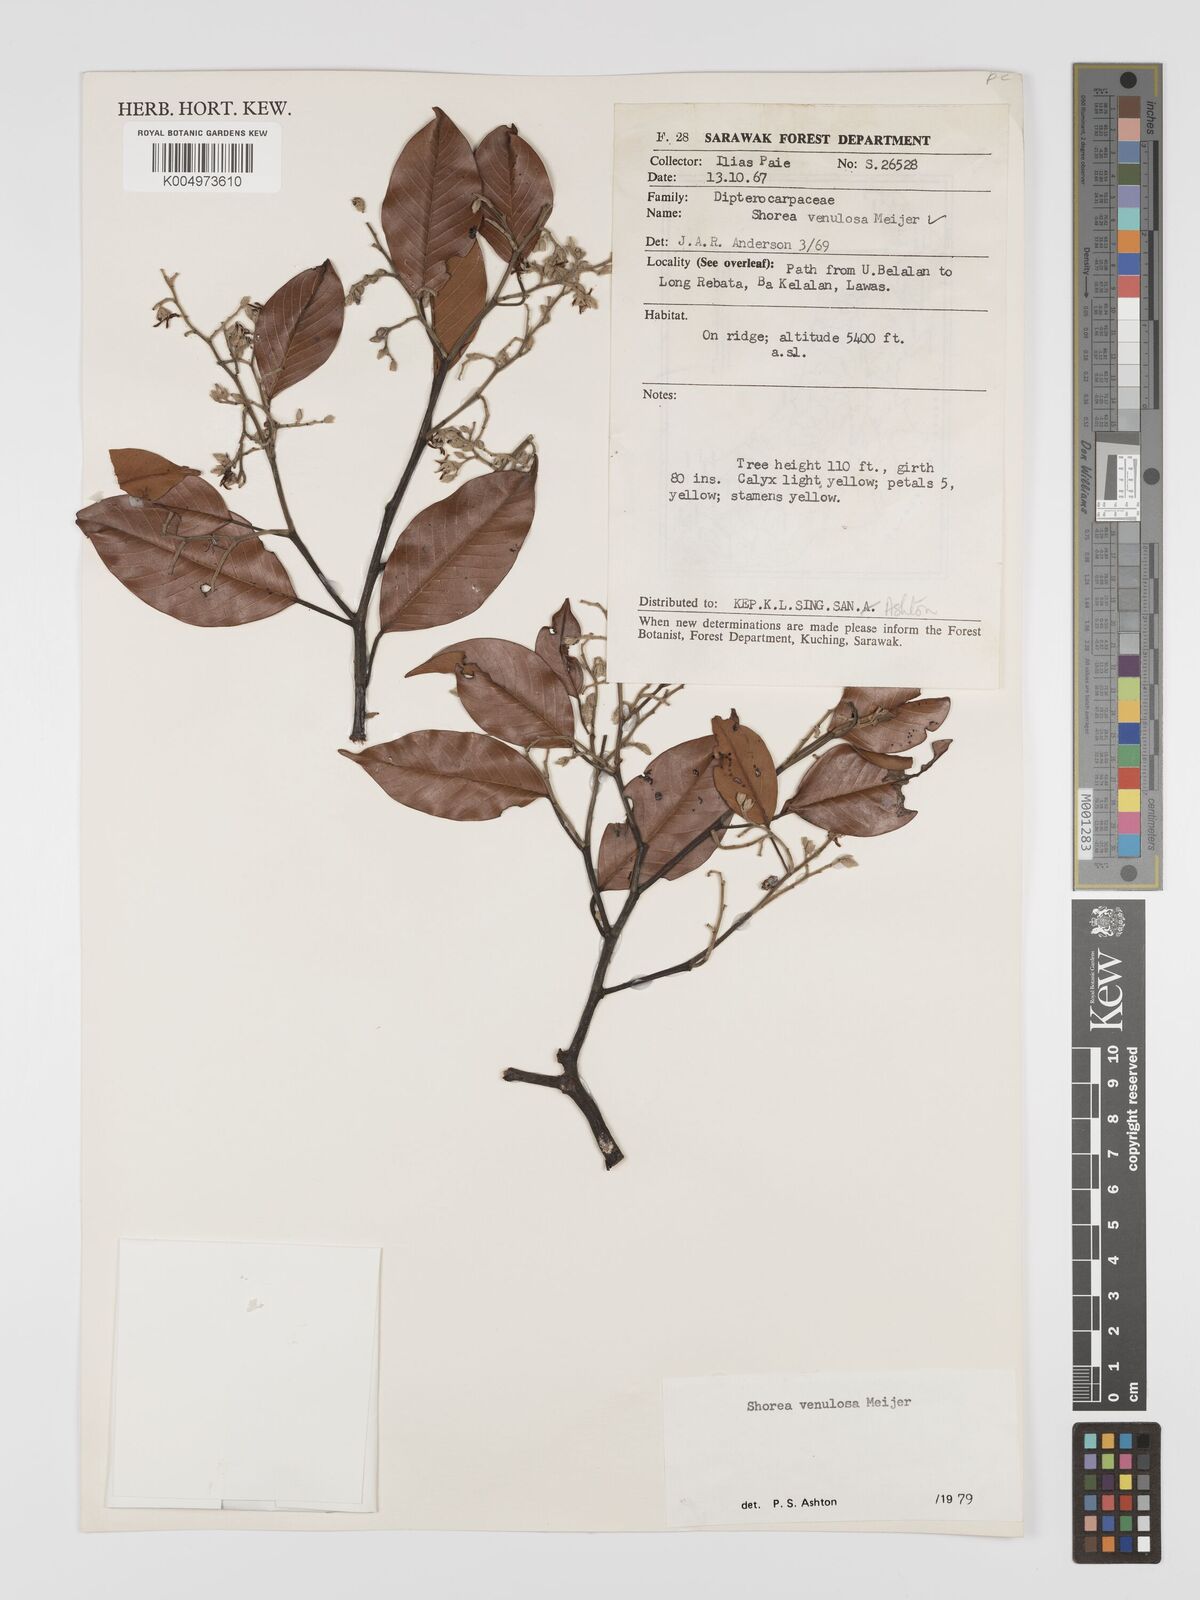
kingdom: Plantae
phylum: Tracheophyta
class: Magnoliopsida
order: Malvales
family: Dipterocarpaceae
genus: Shorea
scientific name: Shorea venulosa
